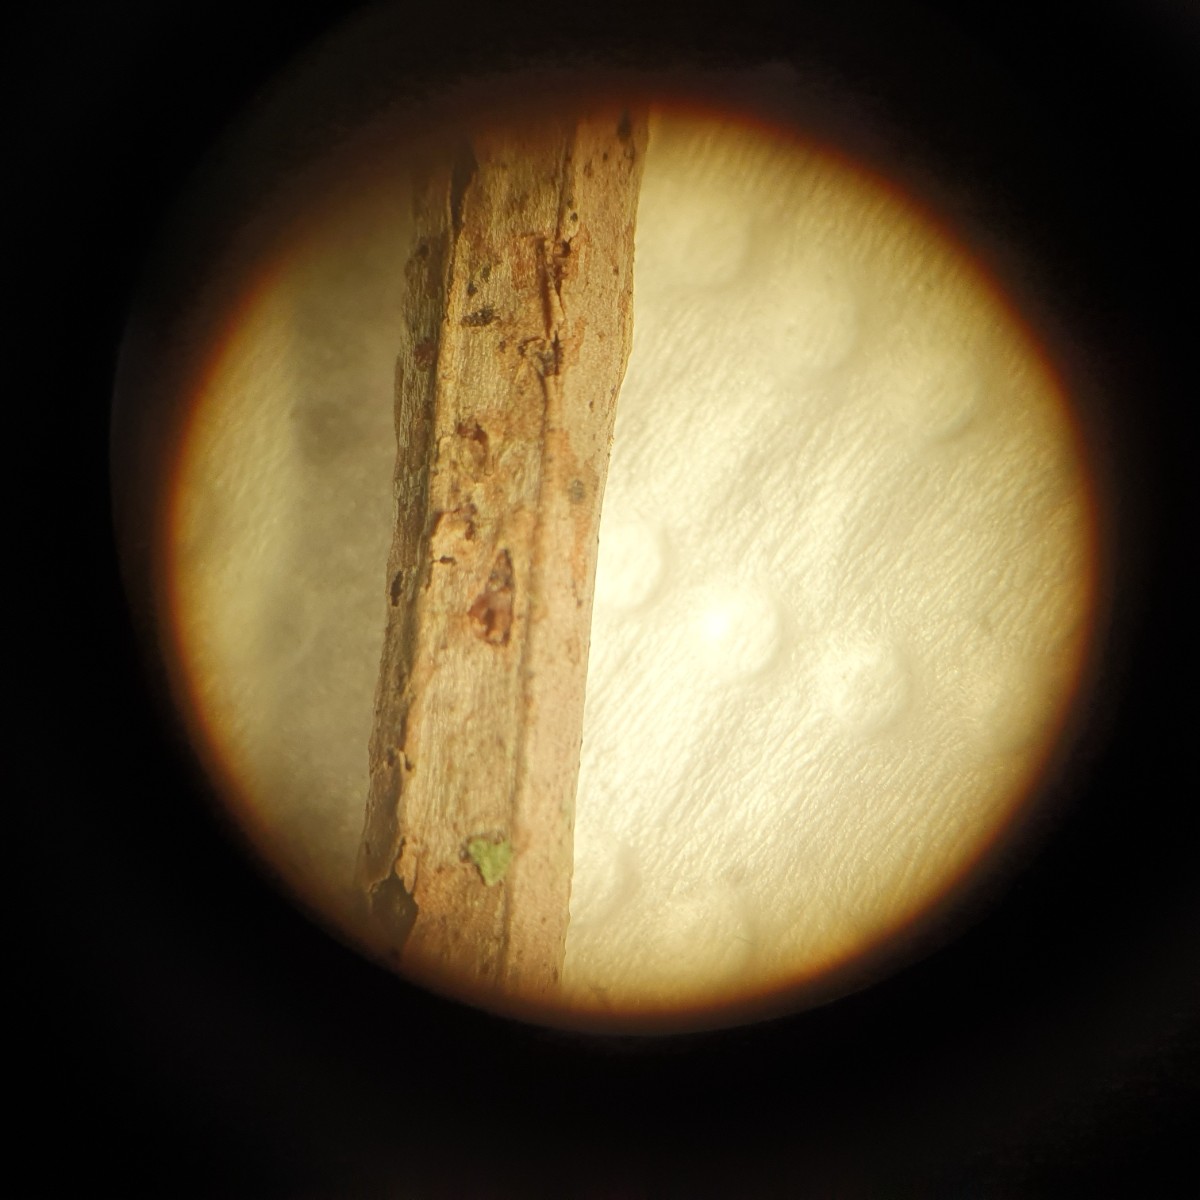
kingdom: Plantae
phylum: Bryophyta
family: Dothideomycetes
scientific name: Dothideomycetes
